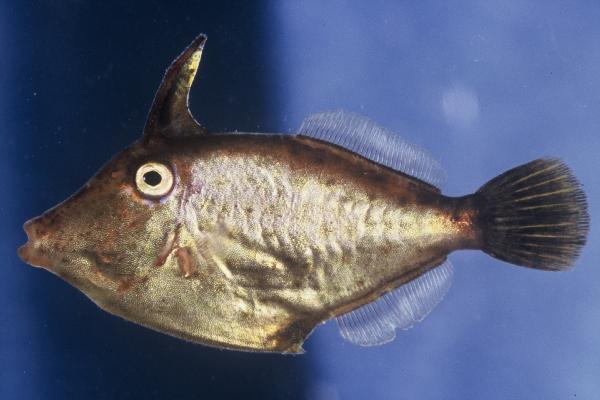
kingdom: Animalia
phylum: Chordata
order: Tetraodontiformes
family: Monacanthidae
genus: Cantherhines
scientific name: Cantherhines pardalis
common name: Honeycomb filefish
